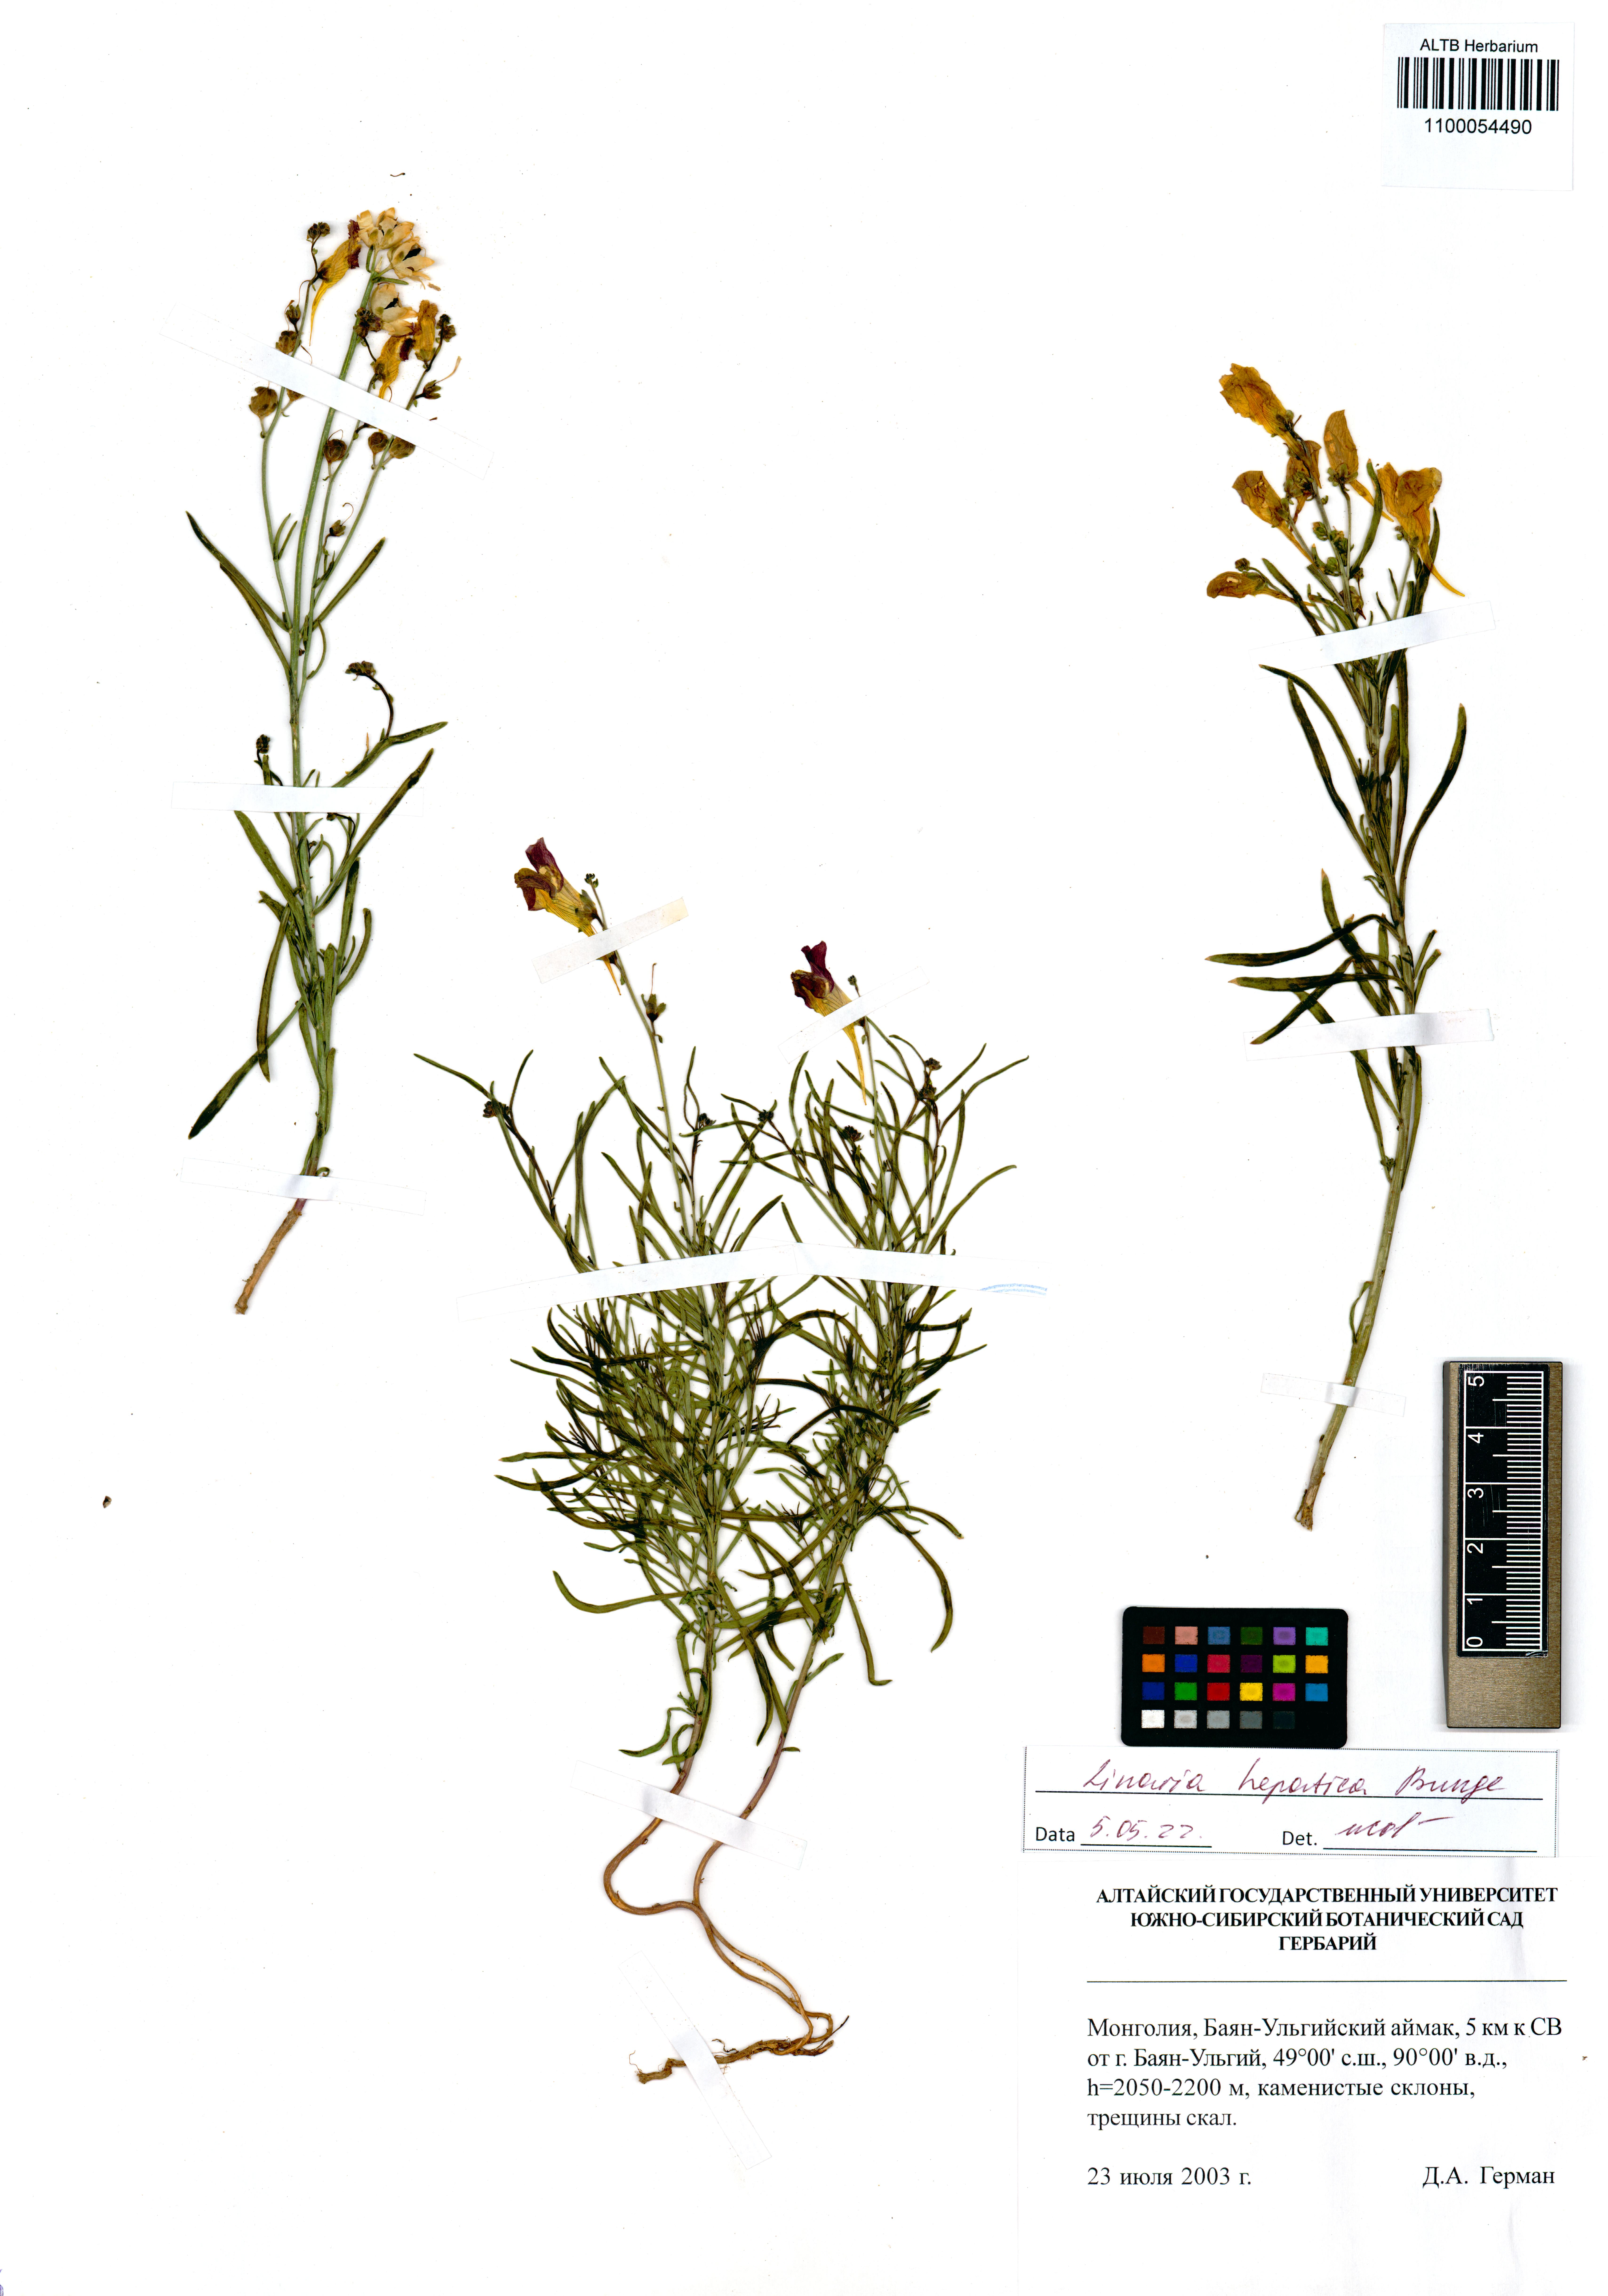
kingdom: Plantae
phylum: Tracheophyta
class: Magnoliopsida
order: Lamiales
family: Plantaginaceae
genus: Linaria
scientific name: Linaria hepatica
